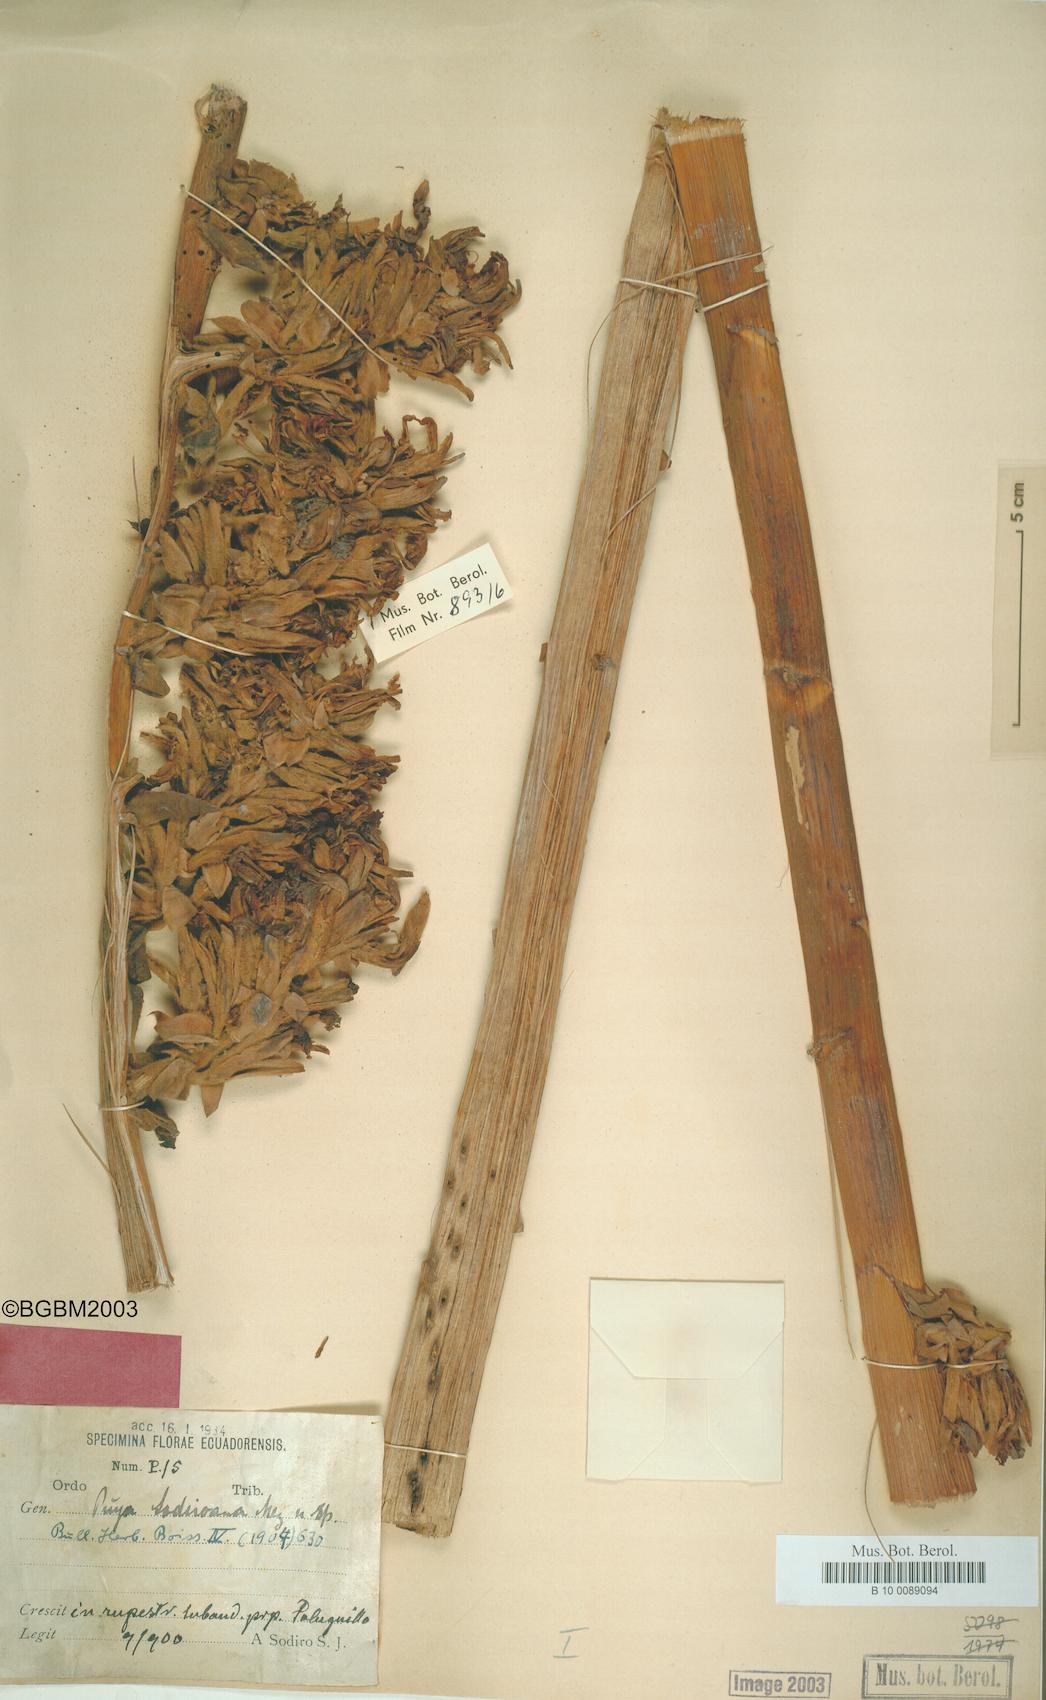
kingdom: Plantae
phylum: Tracheophyta
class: Liliopsida
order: Poales
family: Bromeliaceae
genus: Puya
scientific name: Puya sodiroana
